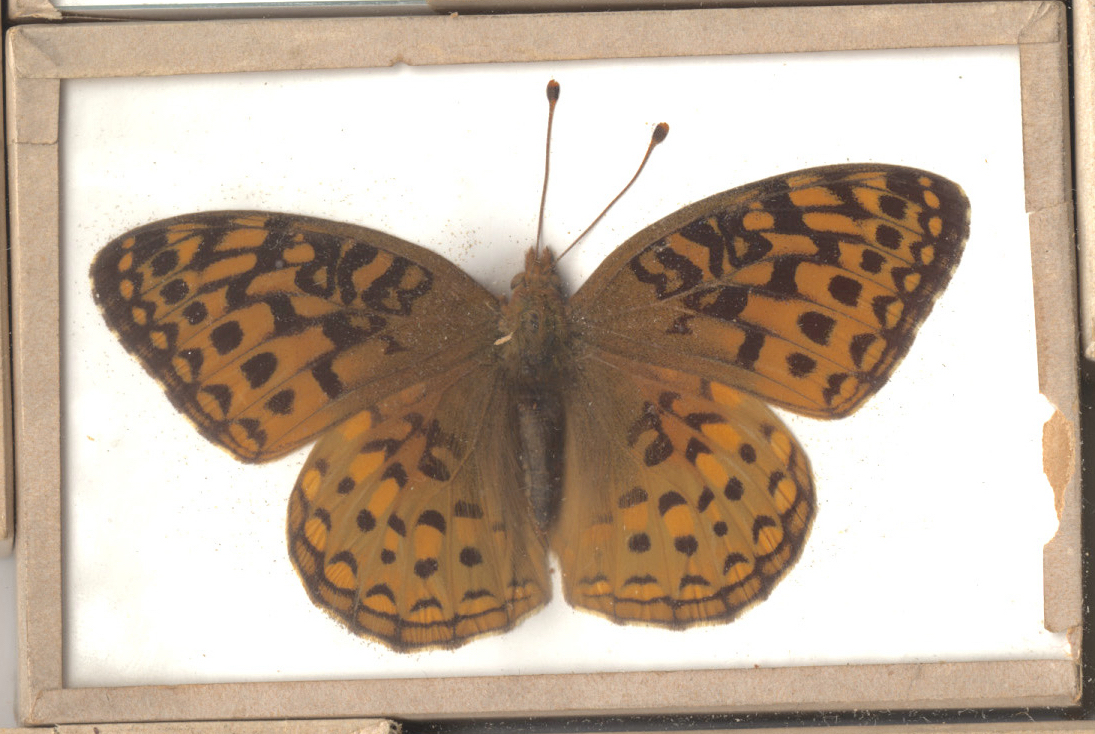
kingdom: Animalia
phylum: Arthropoda
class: Insecta
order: Lepidoptera
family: Nymphalidae
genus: Speyeria
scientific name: Speyeria aphrodite
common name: Aphrodite Fritillary
